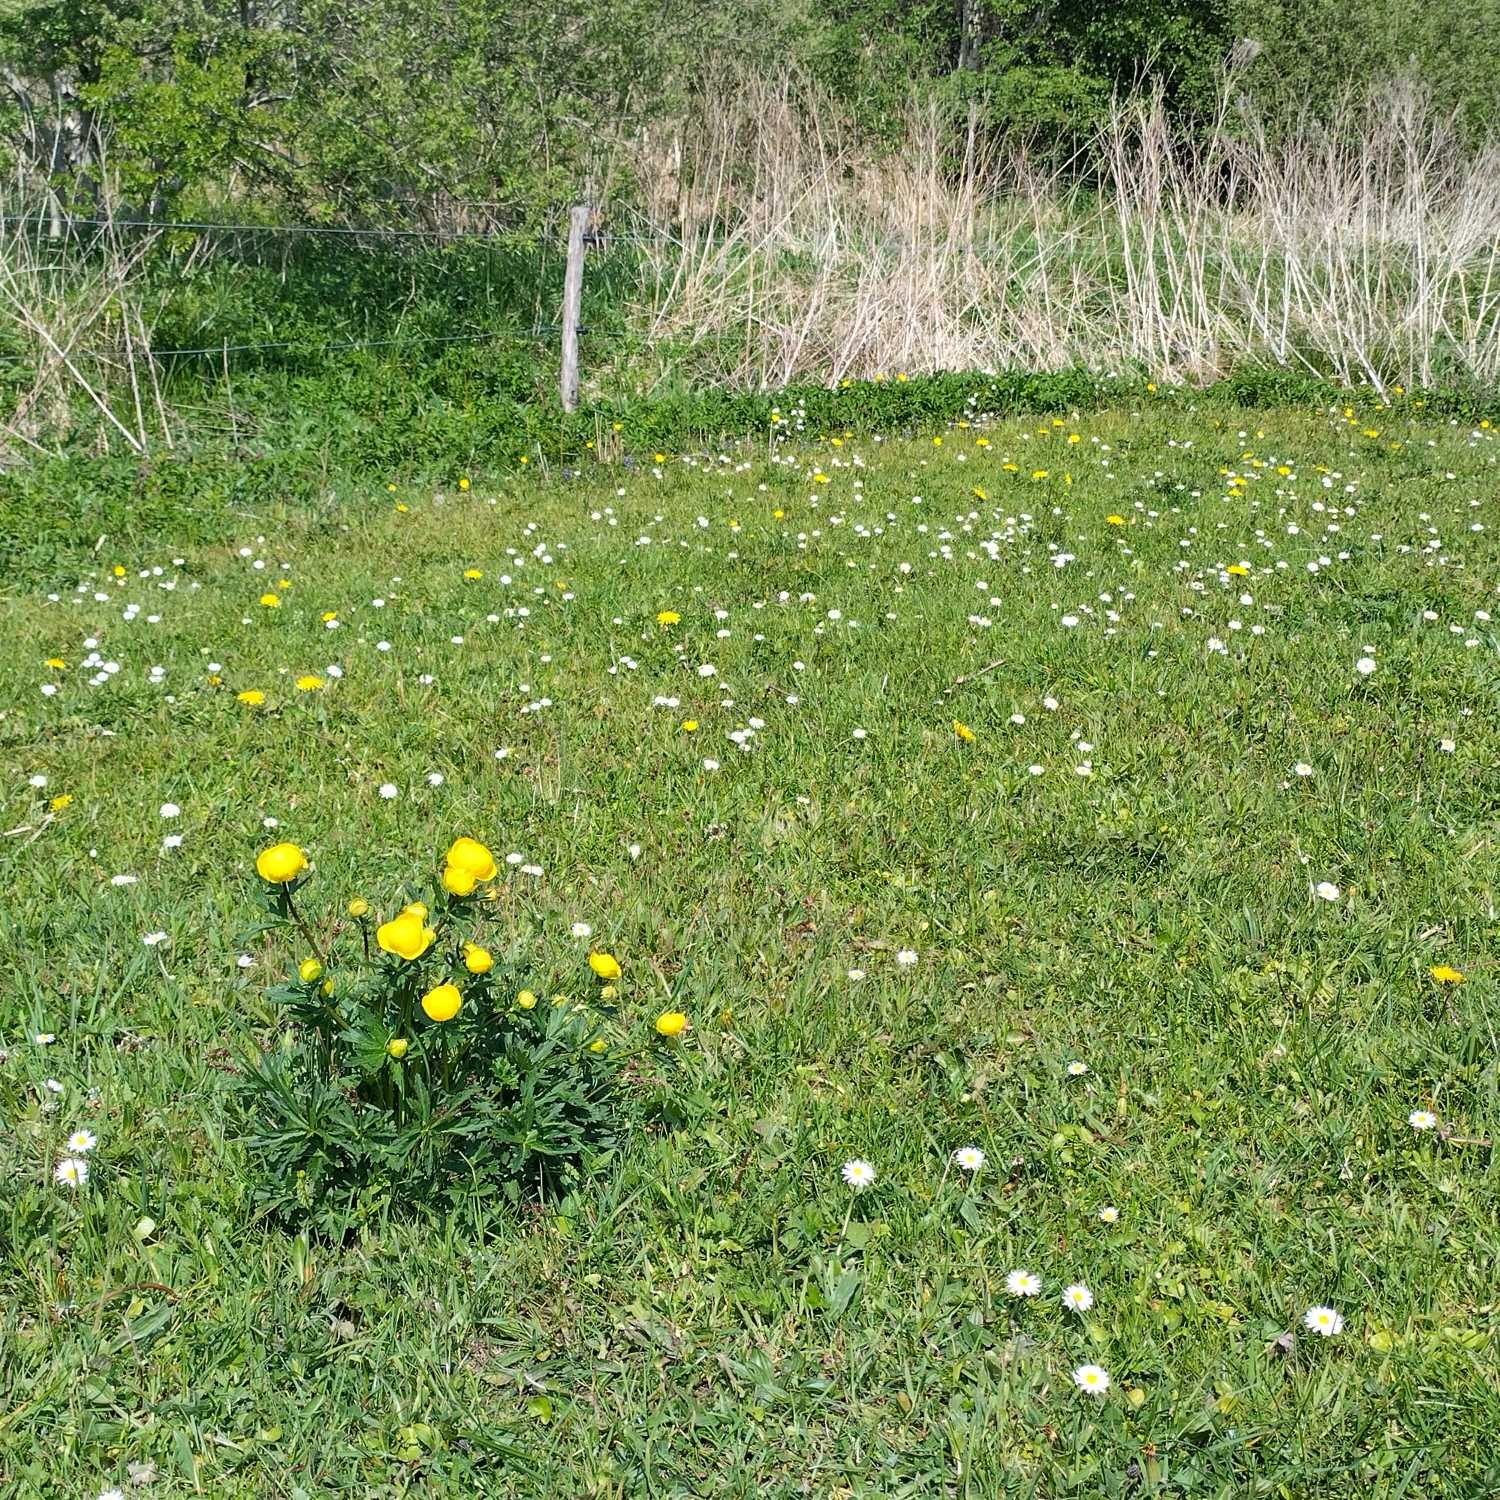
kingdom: Plantae
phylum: Tracheophyta
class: Magnoliopsida
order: Ranunculales
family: Ranunculaceae
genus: Trollius
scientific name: Trollius europaeus
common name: Engblomme
